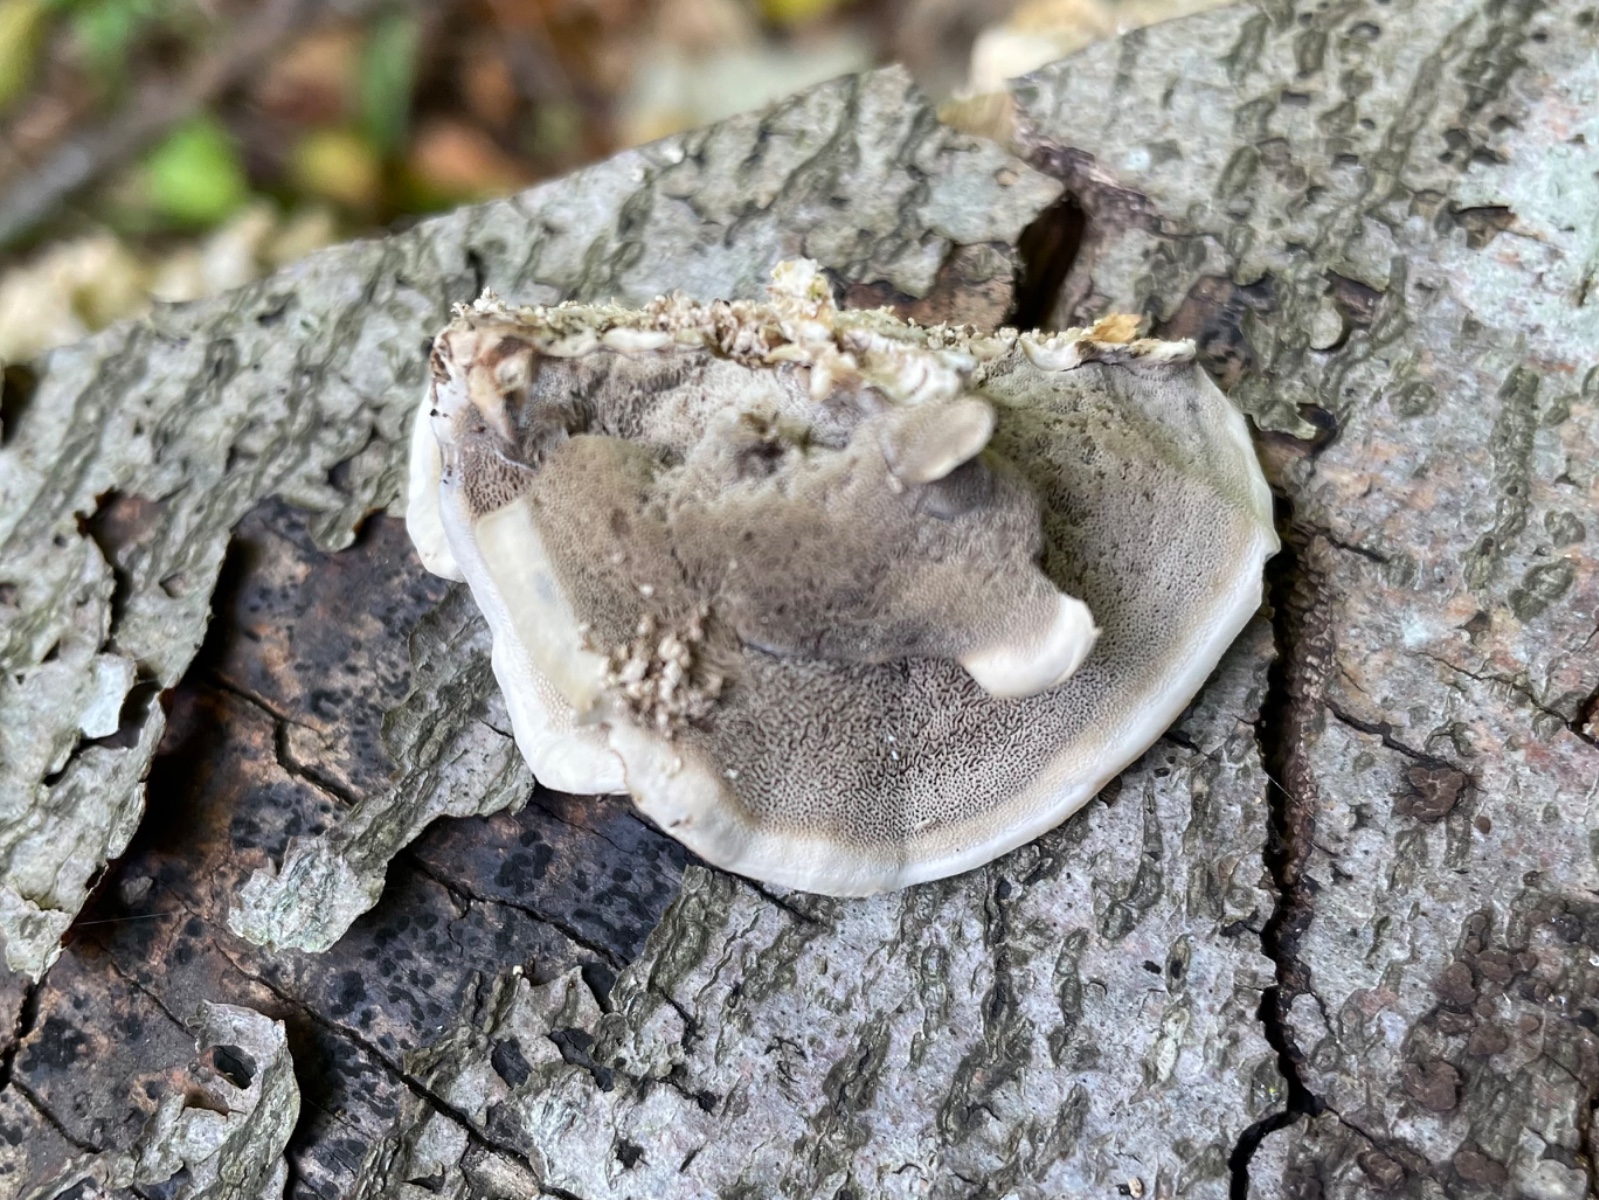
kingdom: Fungi
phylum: Basidiomycota
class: Agaricomycetes
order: Polyporales
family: Phanerochaetaceae
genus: Bjerkandera
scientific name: Bjerkandera adusta
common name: sveden sodporesvamp
